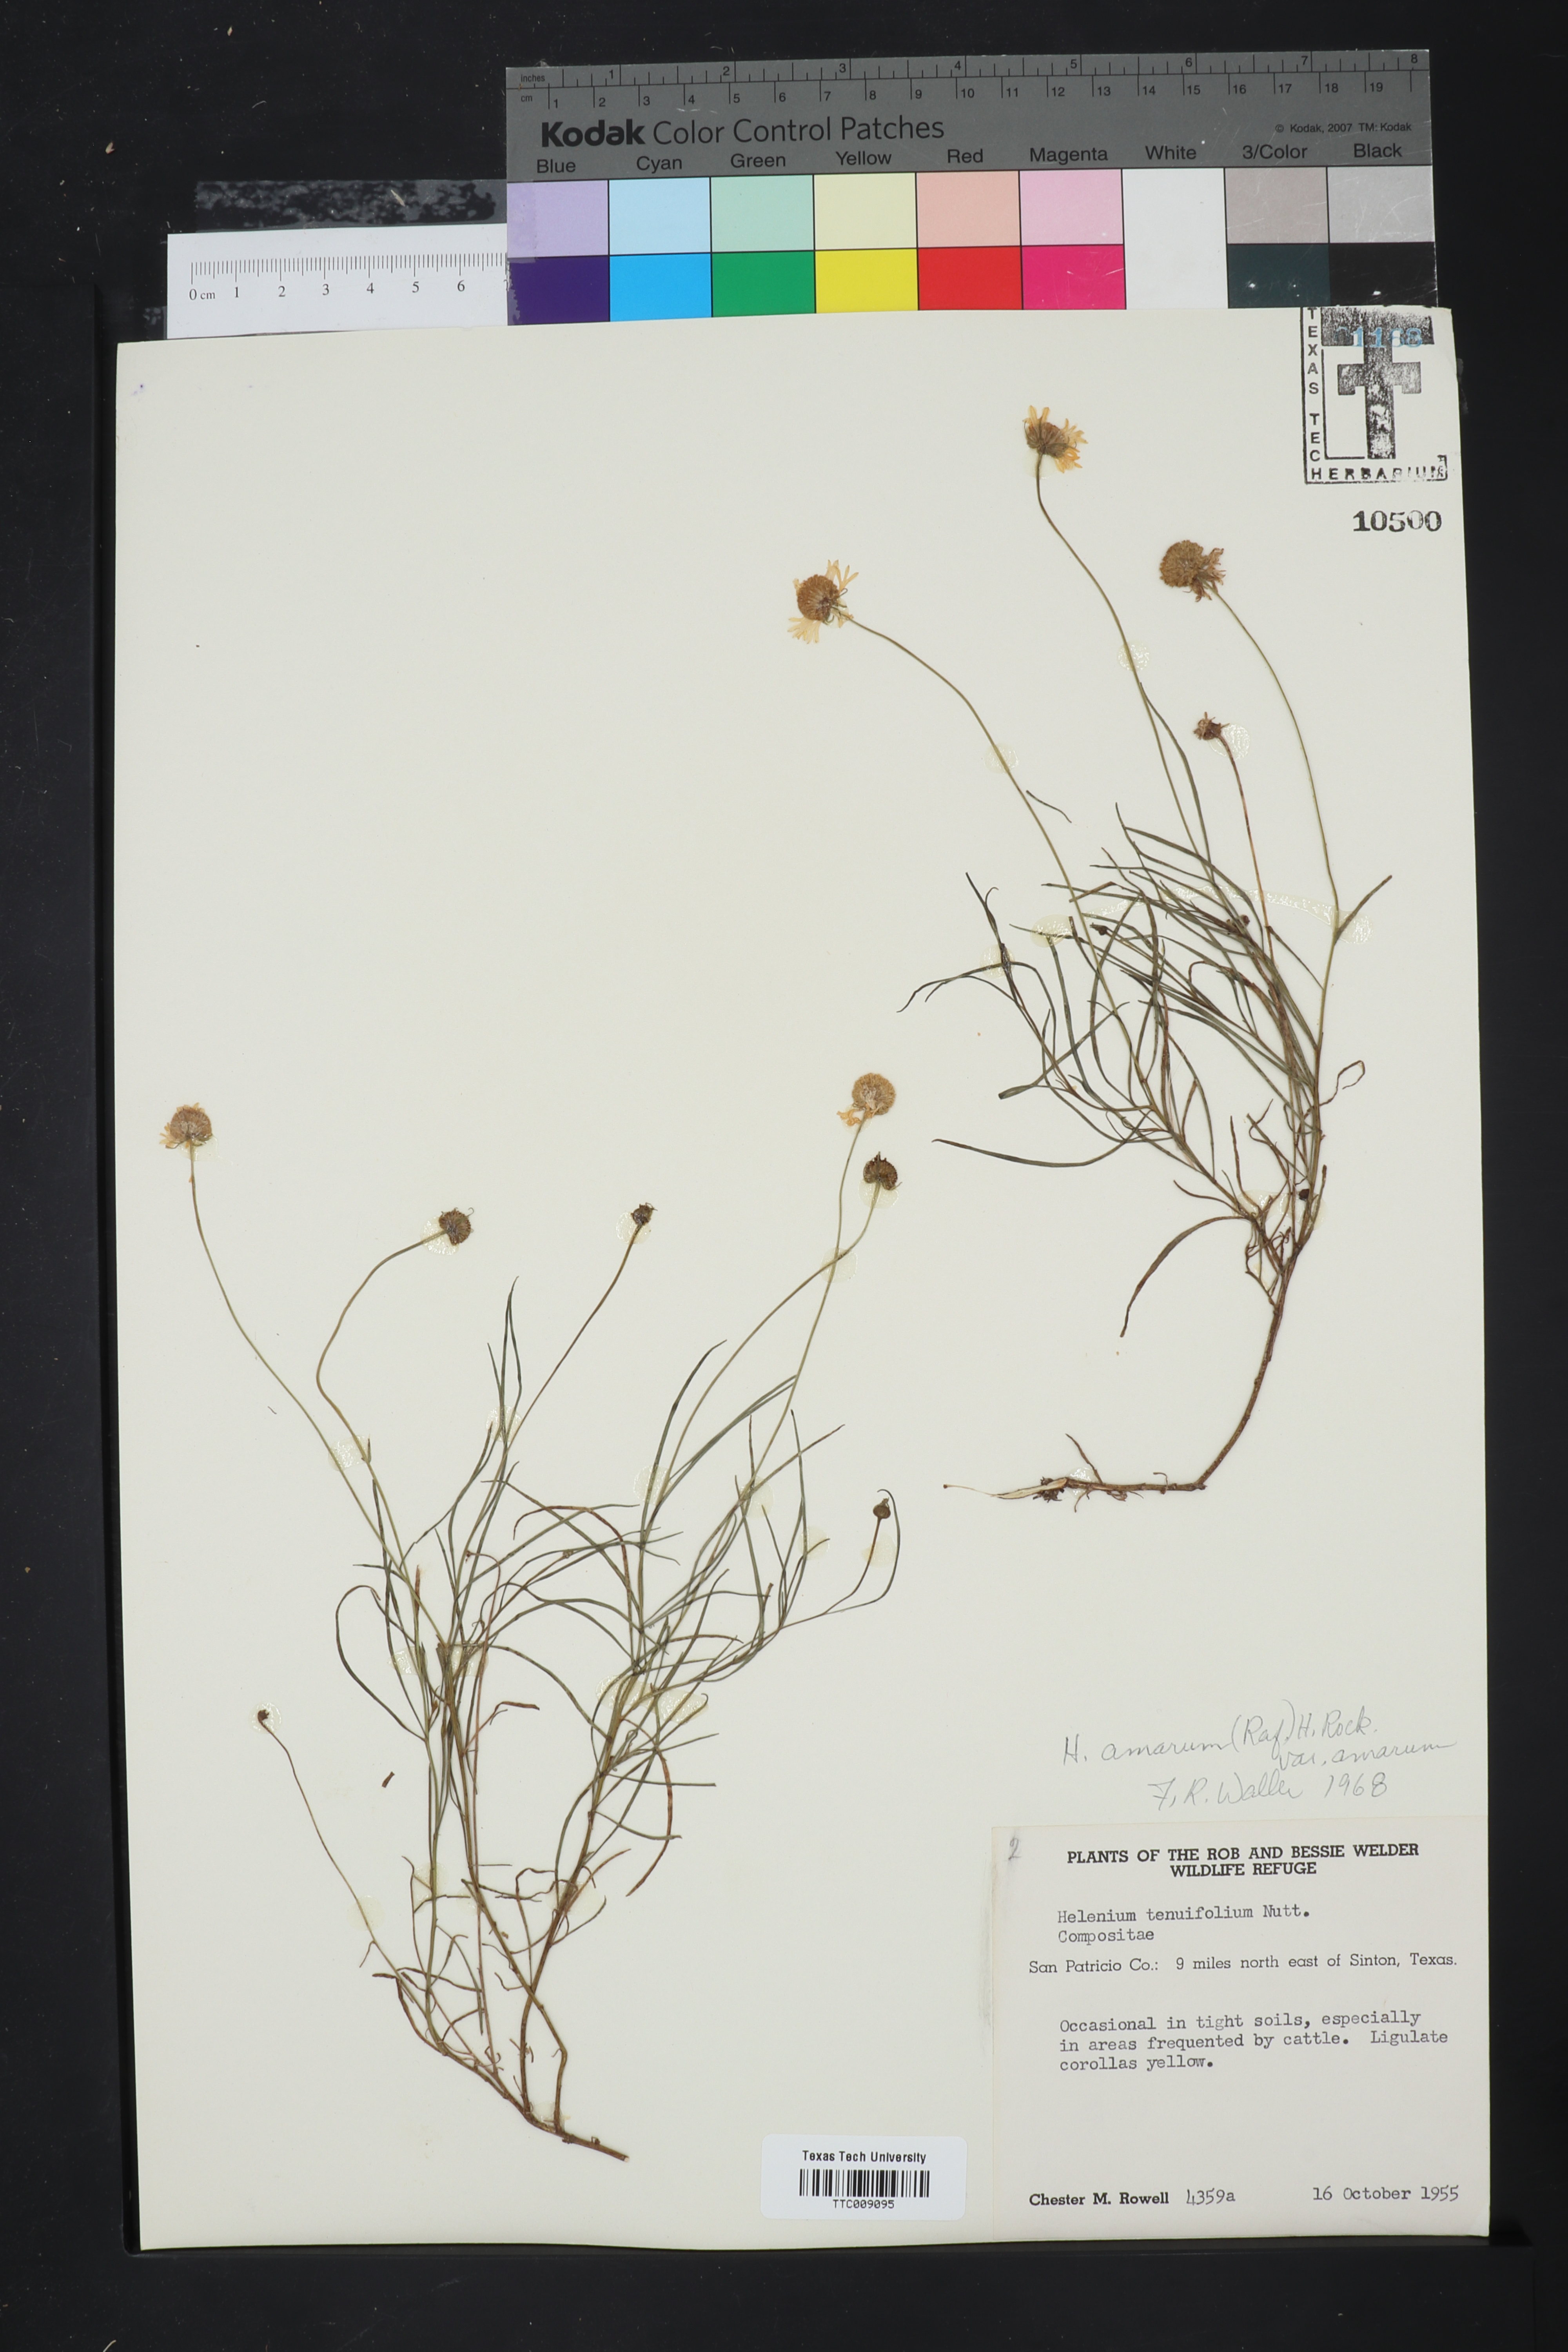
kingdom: Plantae
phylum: Tracheophyta
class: Magnoliopsida
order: Asterales
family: Asteraceae
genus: Helenium
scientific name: Helenium amarum
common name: Bitter sneezeweed
